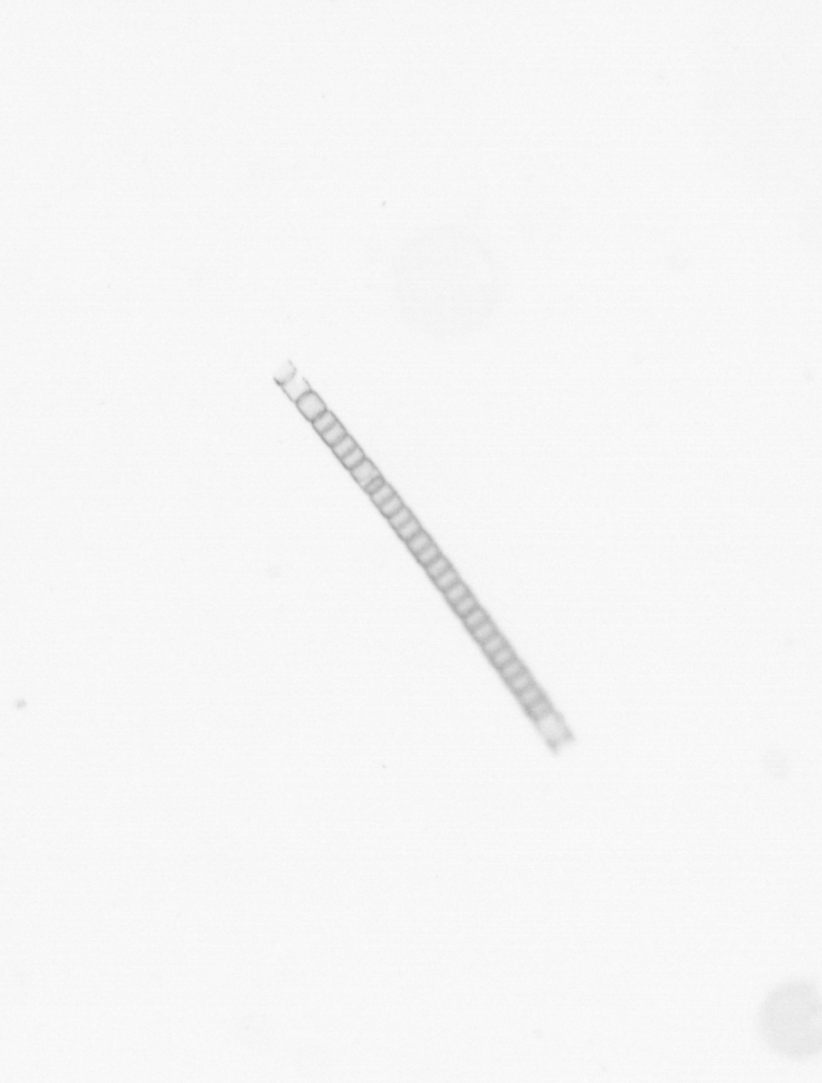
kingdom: Chromista
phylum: Ochrophyta
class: Bacillariophyceae
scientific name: Bacillariophyceae
